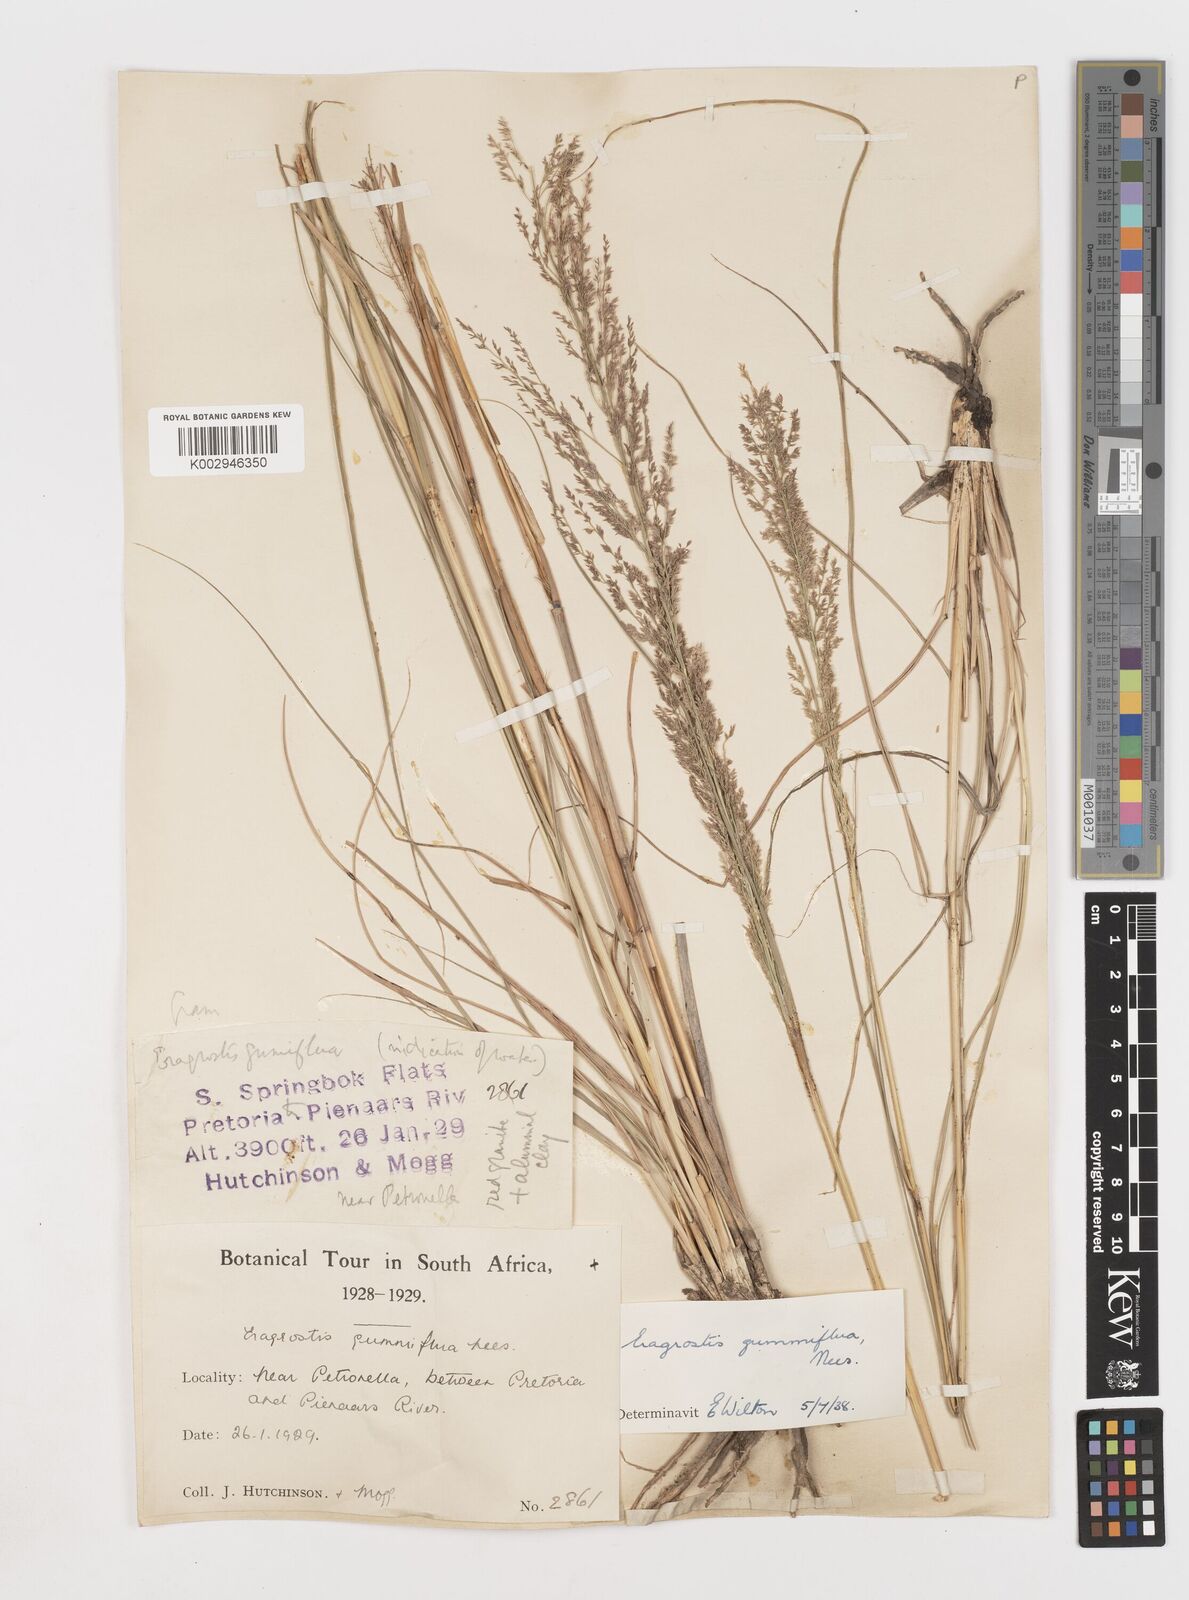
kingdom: Plantae
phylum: Tracheophyta
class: Liliopsida
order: Poales
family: Poaceae
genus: Eragrostis
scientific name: Eragrostis gummiflua
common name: Gum grass
